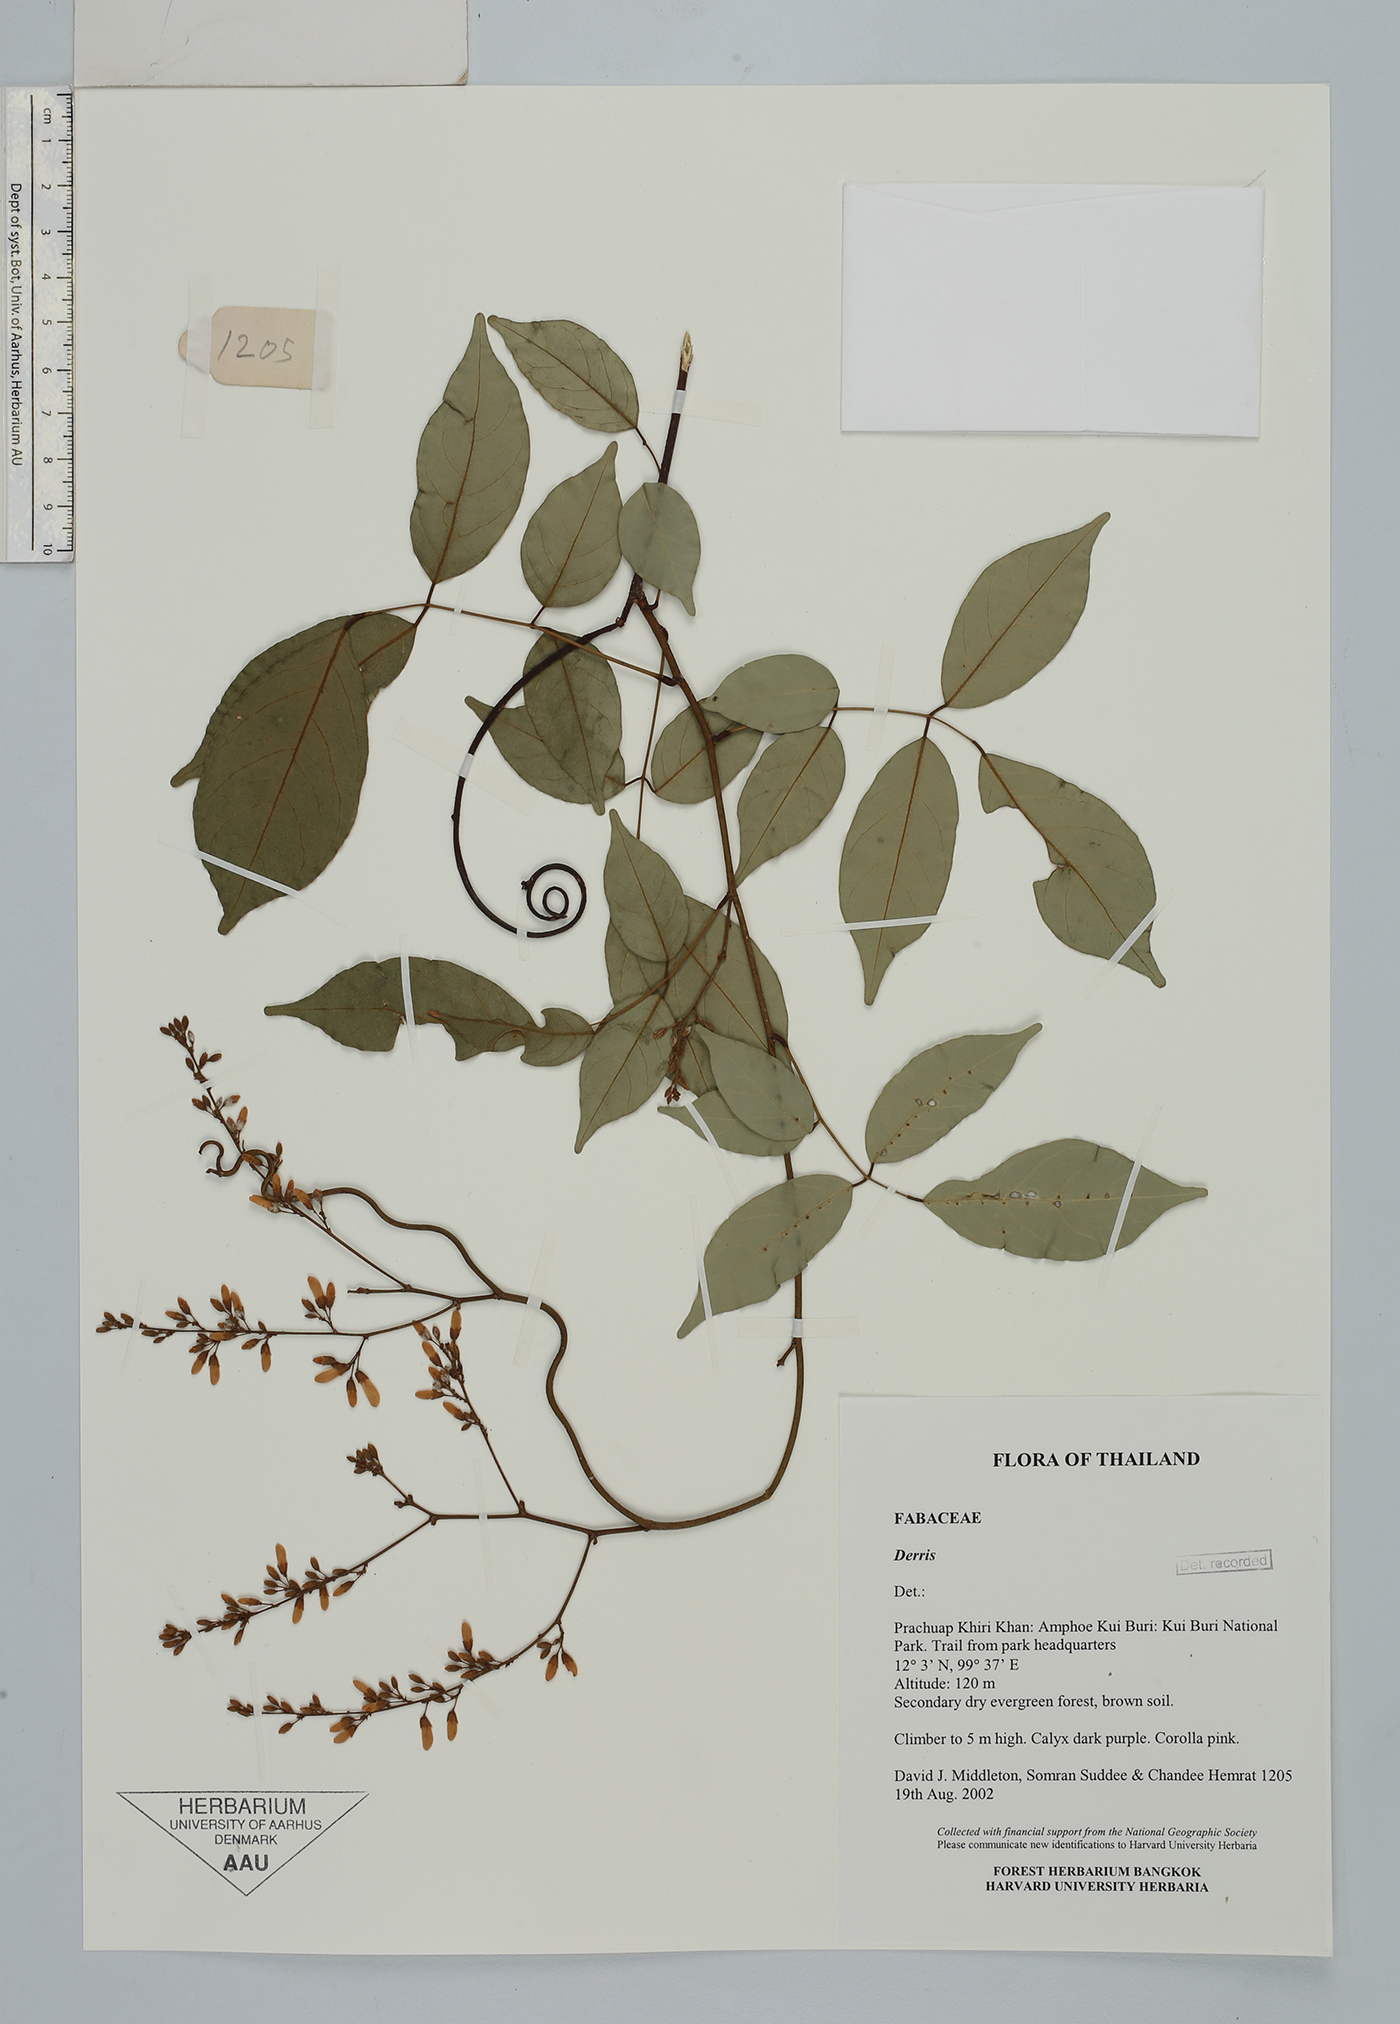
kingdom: Plantae
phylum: Tracheophyta
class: Magnoliopsida
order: Fabales
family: Fabaceae
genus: Derris
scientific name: Derris
